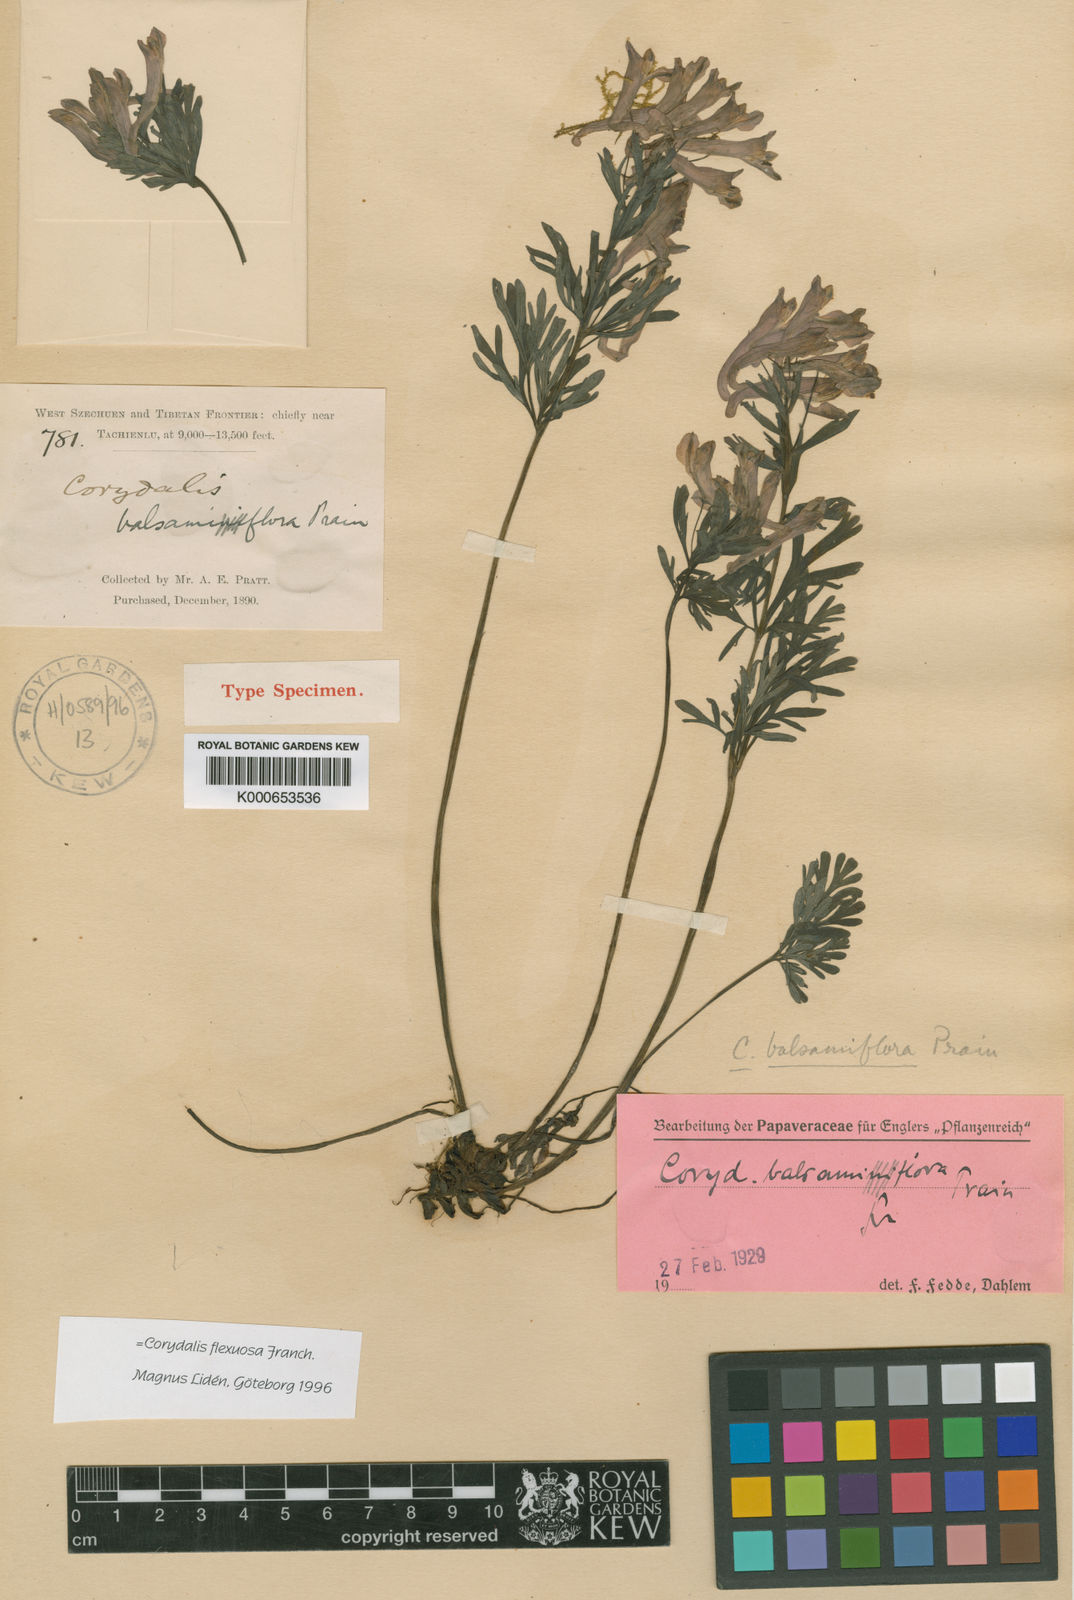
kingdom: Plantae
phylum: Tracheophyta
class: Magnoliopsida
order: Ranunculales
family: Papaveraceae
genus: Corydalis
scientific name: Corydalis balsamiflora
